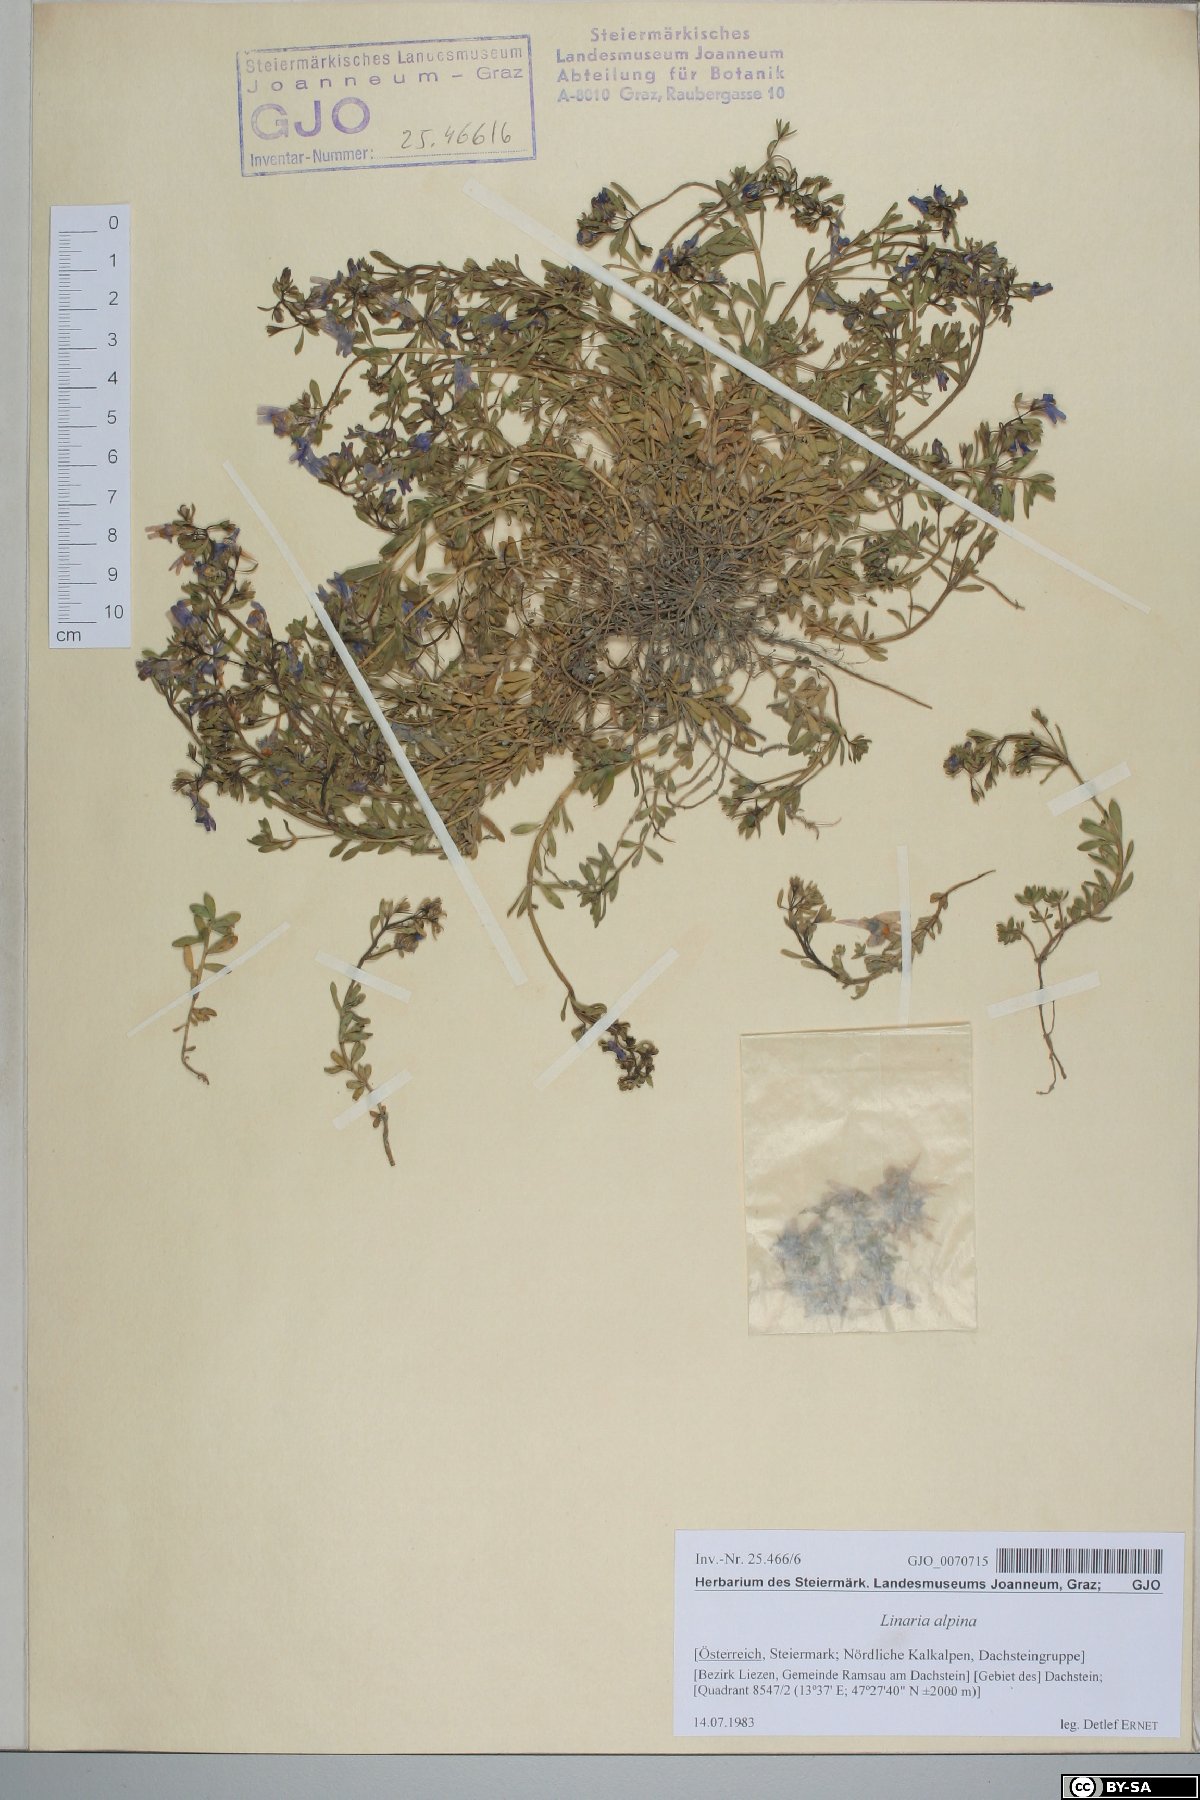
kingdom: Plantae
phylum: Tracheophyta
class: Magnoliopsida
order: Lamiales
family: Plantaginaceae
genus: Linaria
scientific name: Linaria alpina
